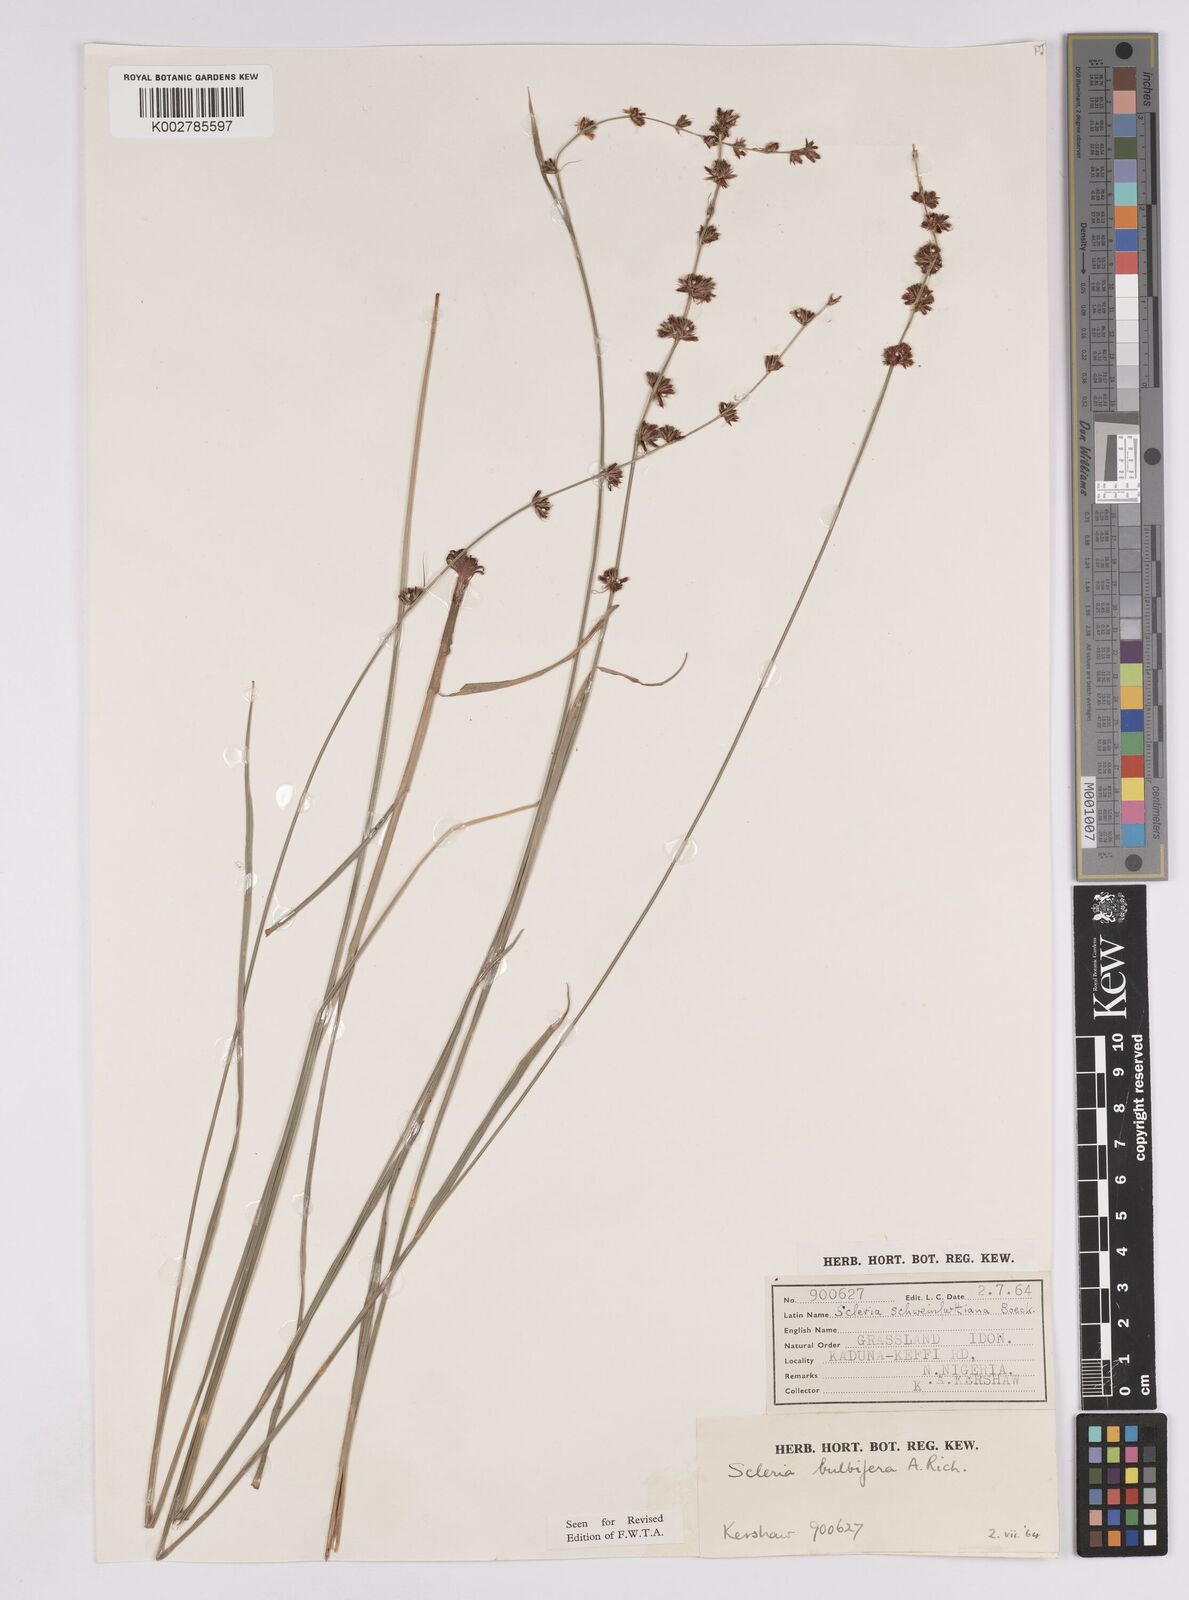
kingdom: Plantae
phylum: Tracheophyta
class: Liliopsida
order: Poales
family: Cyperaceae
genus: Scleria
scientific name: Scleria bulbifera
